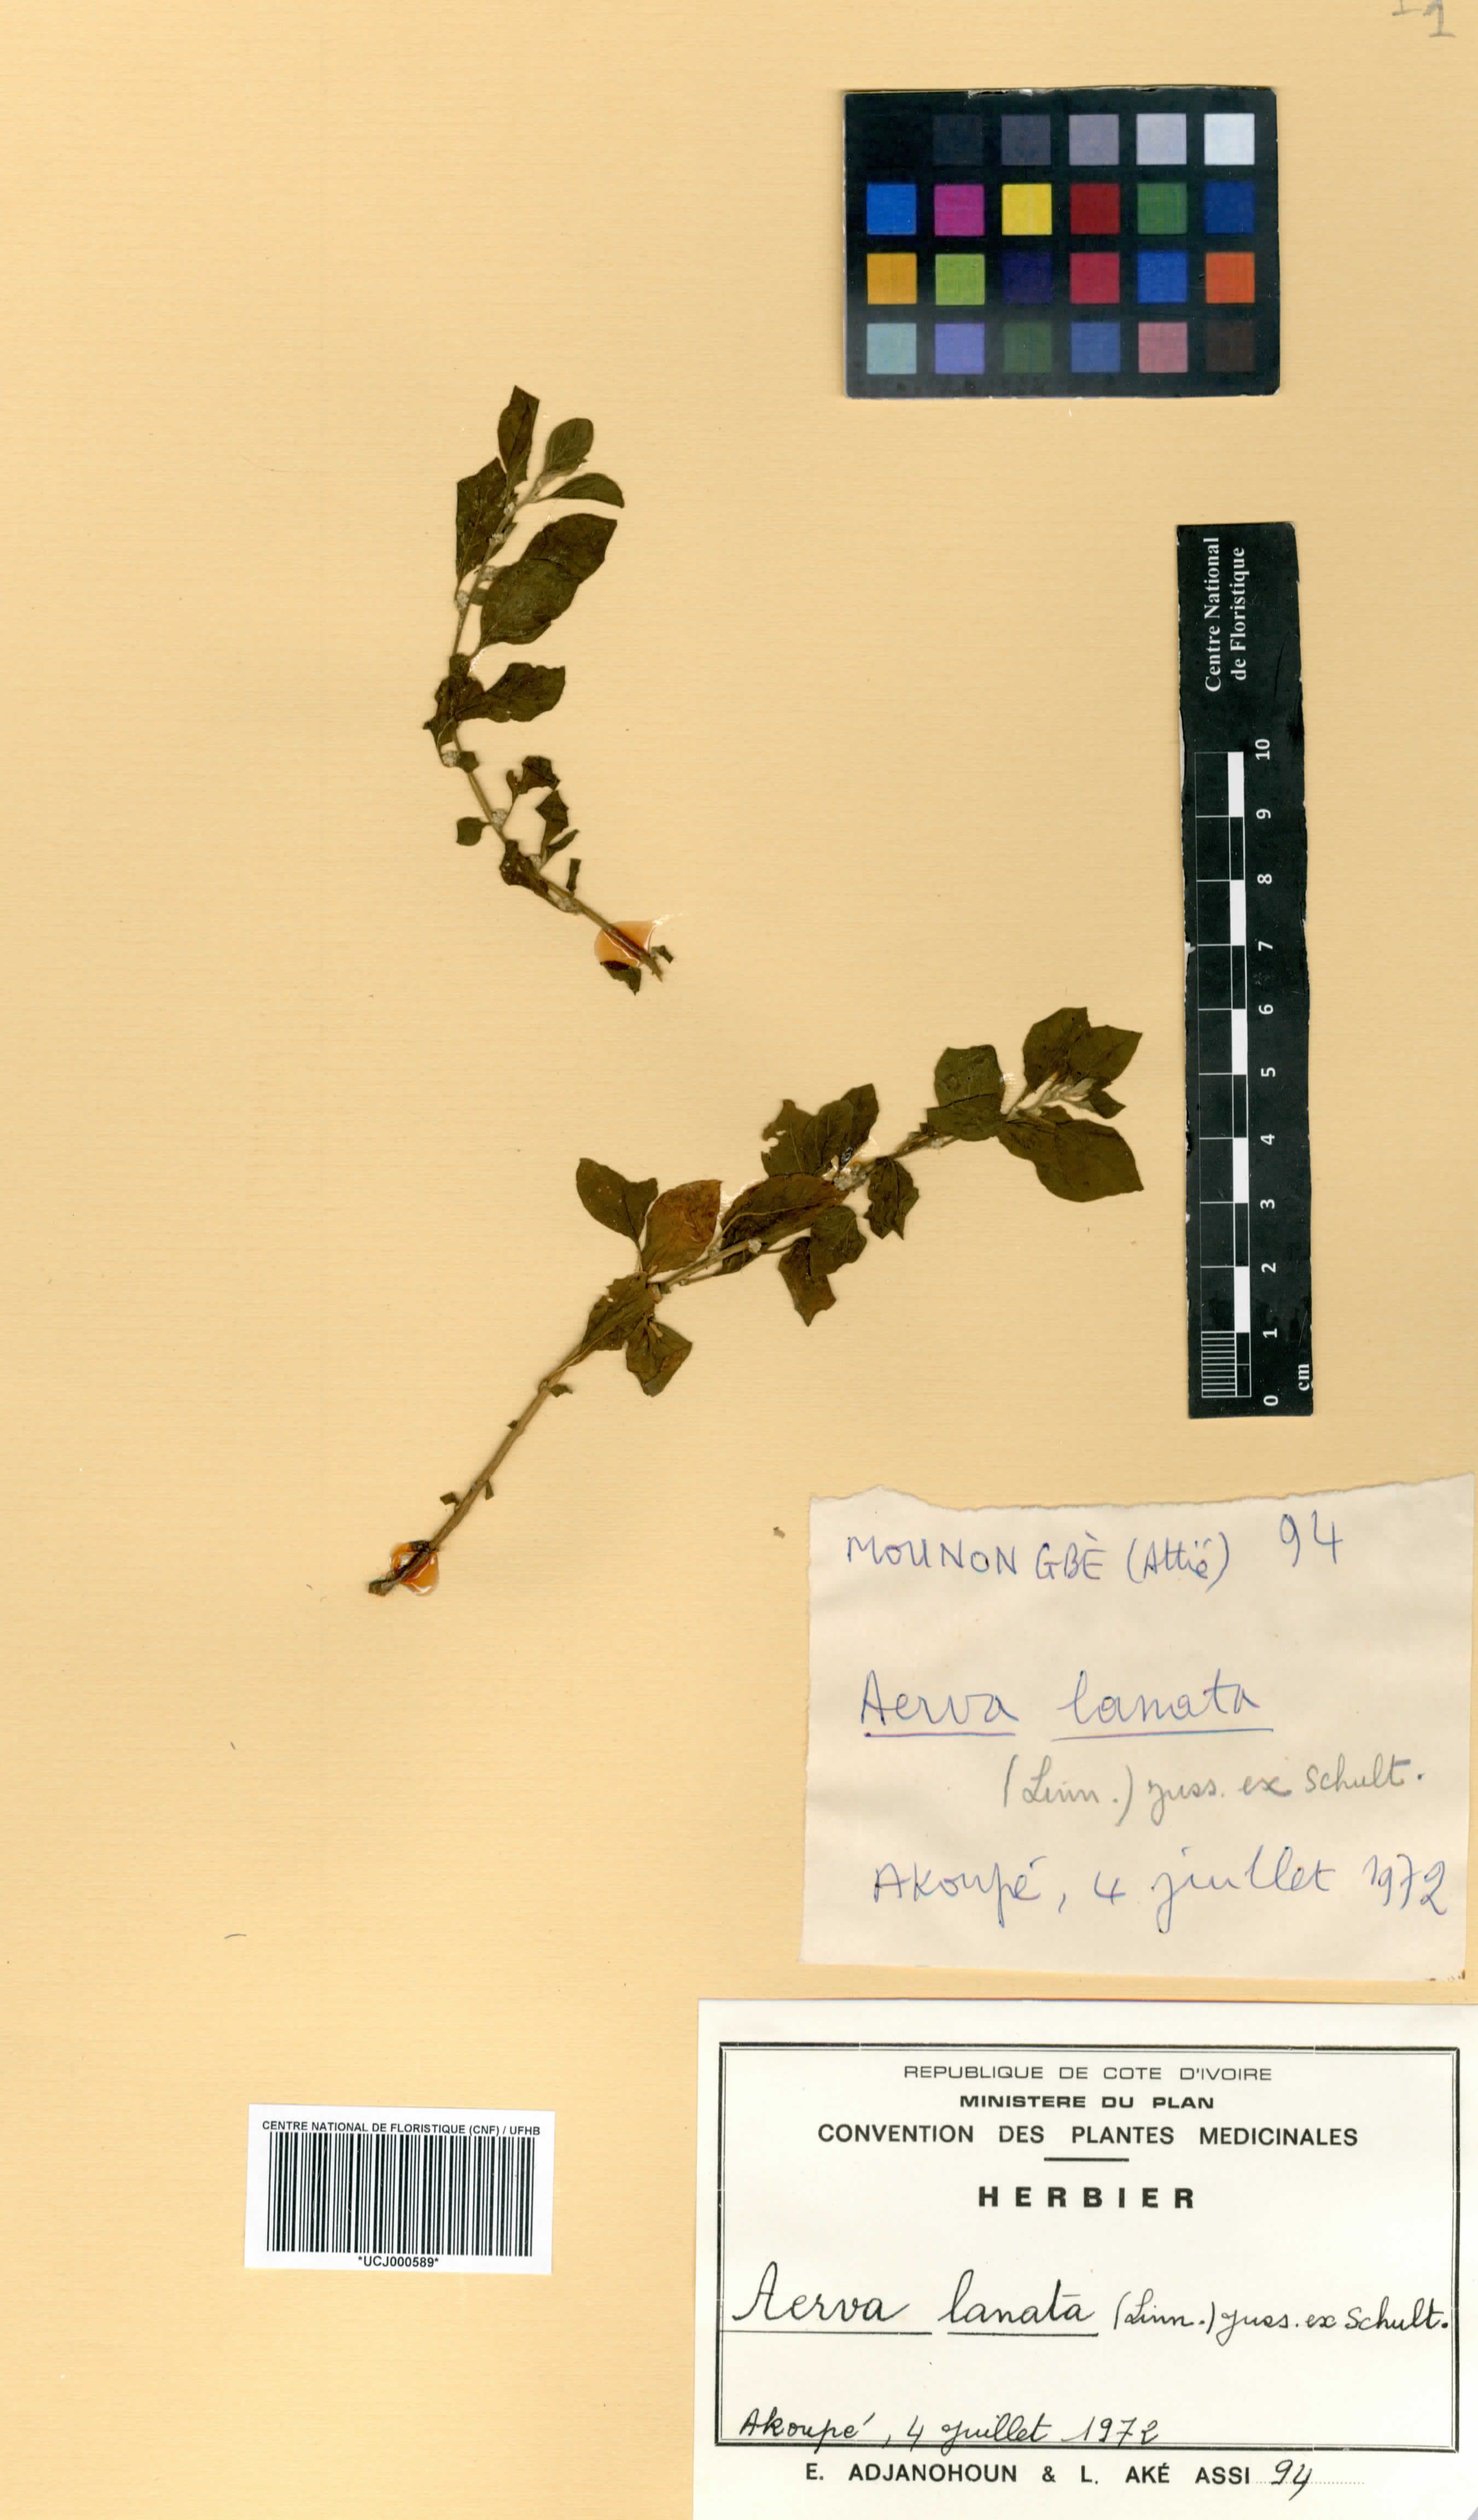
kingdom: Plantae
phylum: Tracheophyta
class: Magnoliopsida
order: Caryophyllales
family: Amaranthaceae
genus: Ouret
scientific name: Ouret lanata
